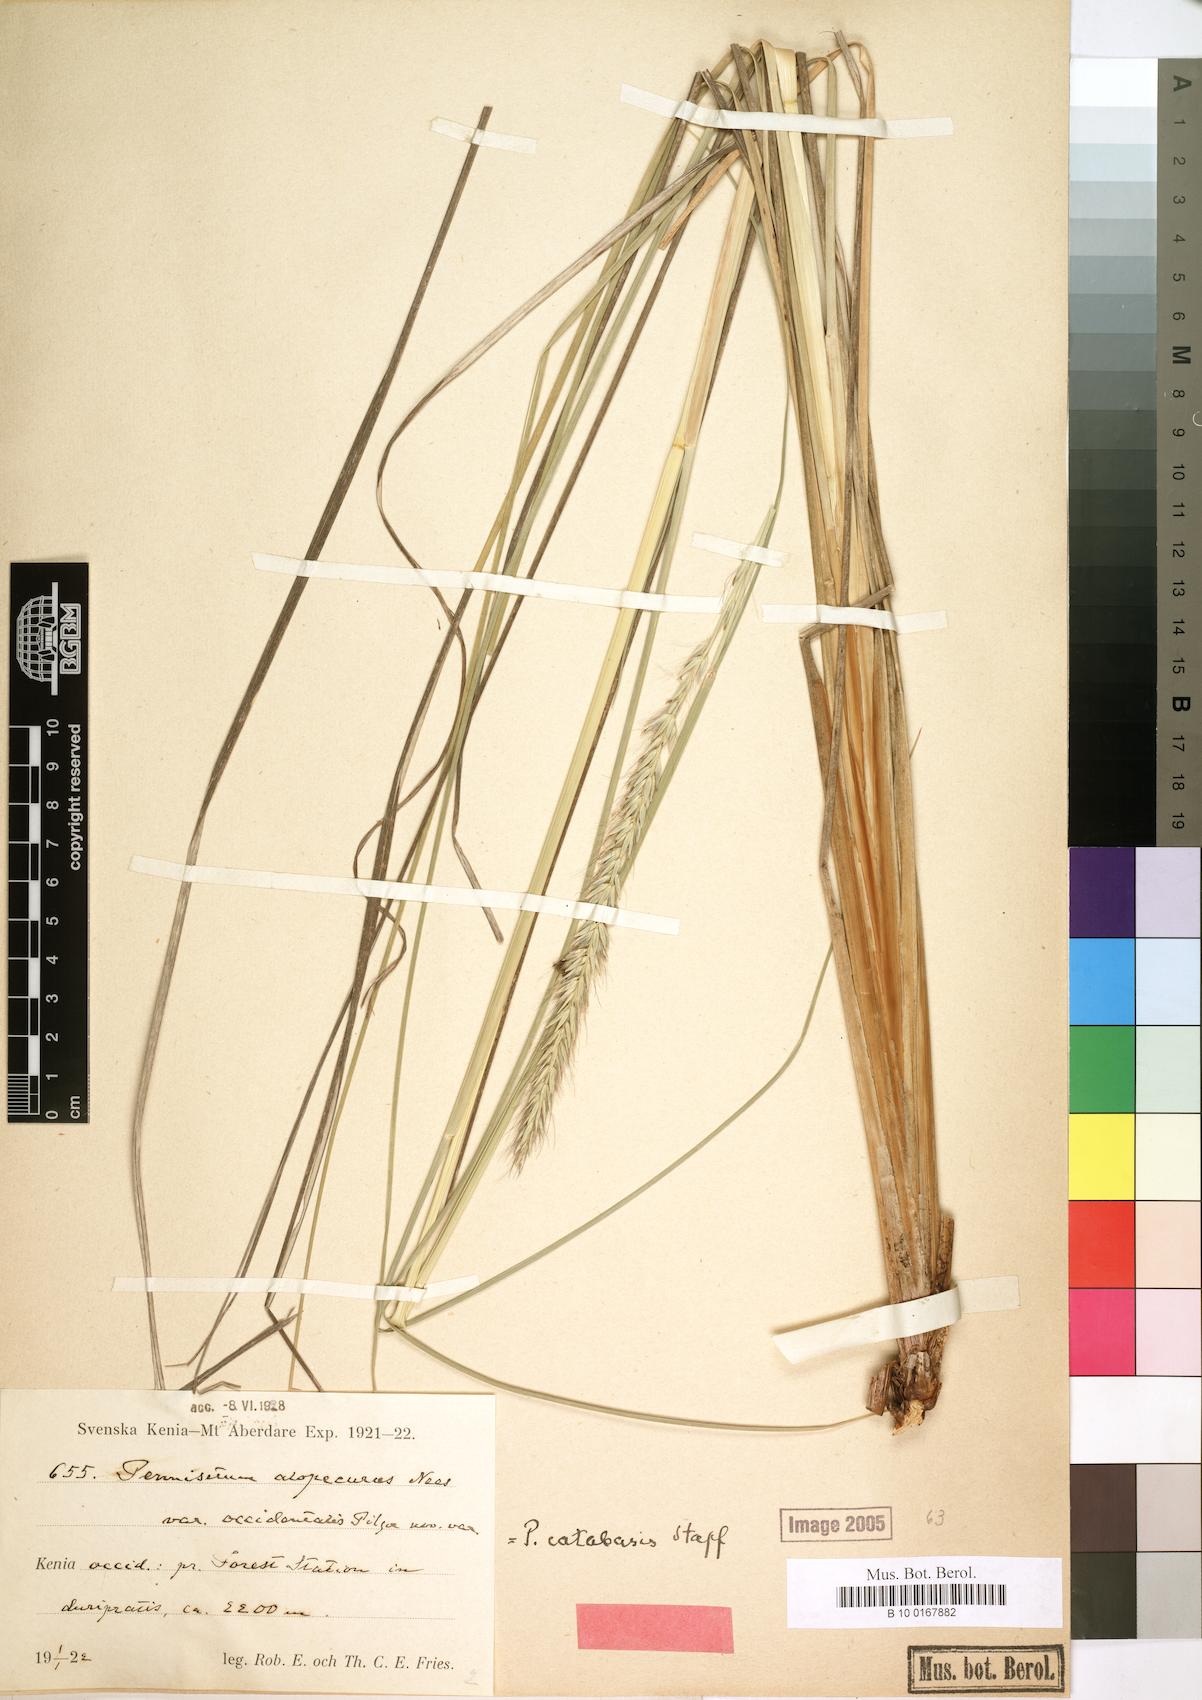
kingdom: Plantae
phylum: Tracheophyta
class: Liliopsida
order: Poales
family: Poaceae
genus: Cenchrus
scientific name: Cenchrus hohenackeri
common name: Moya grass
